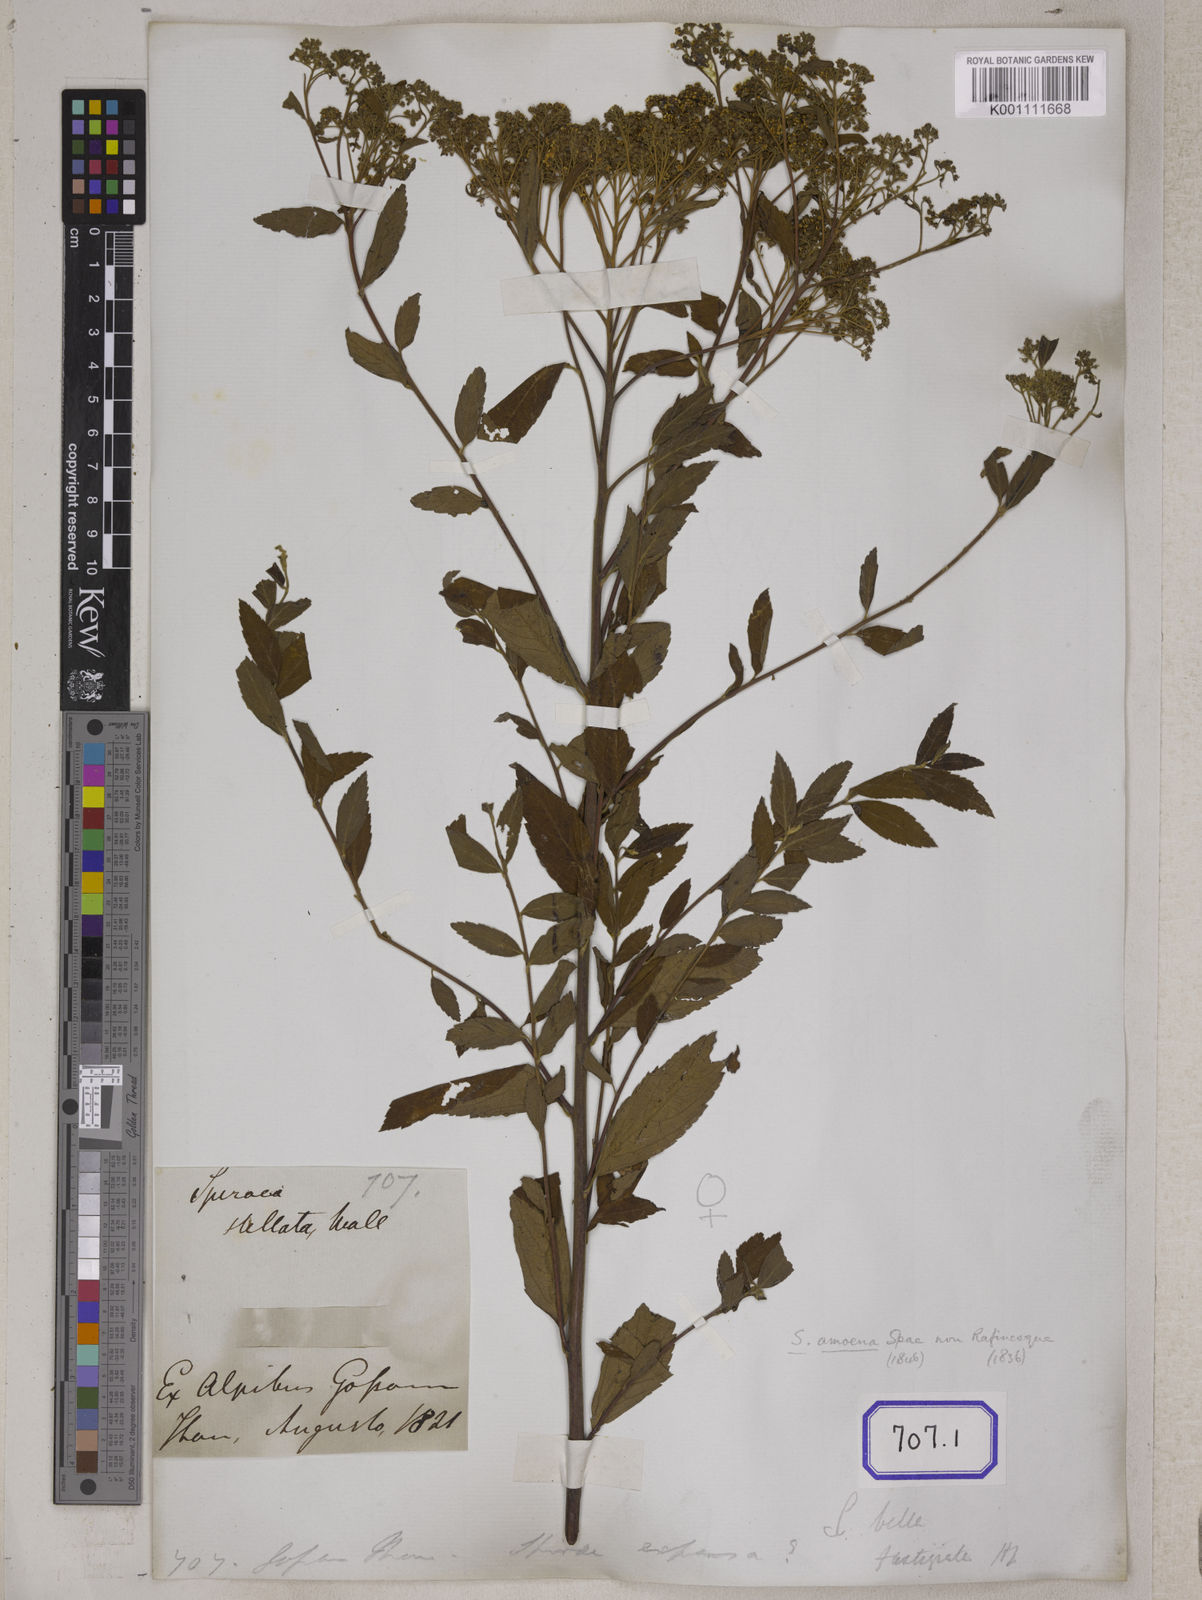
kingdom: Plantae
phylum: Tracheophyta
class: Magnoliopsida
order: Rosales
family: Rosaceae
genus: Spiraea
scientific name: Spiraea japonica
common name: Japanese spiraea
